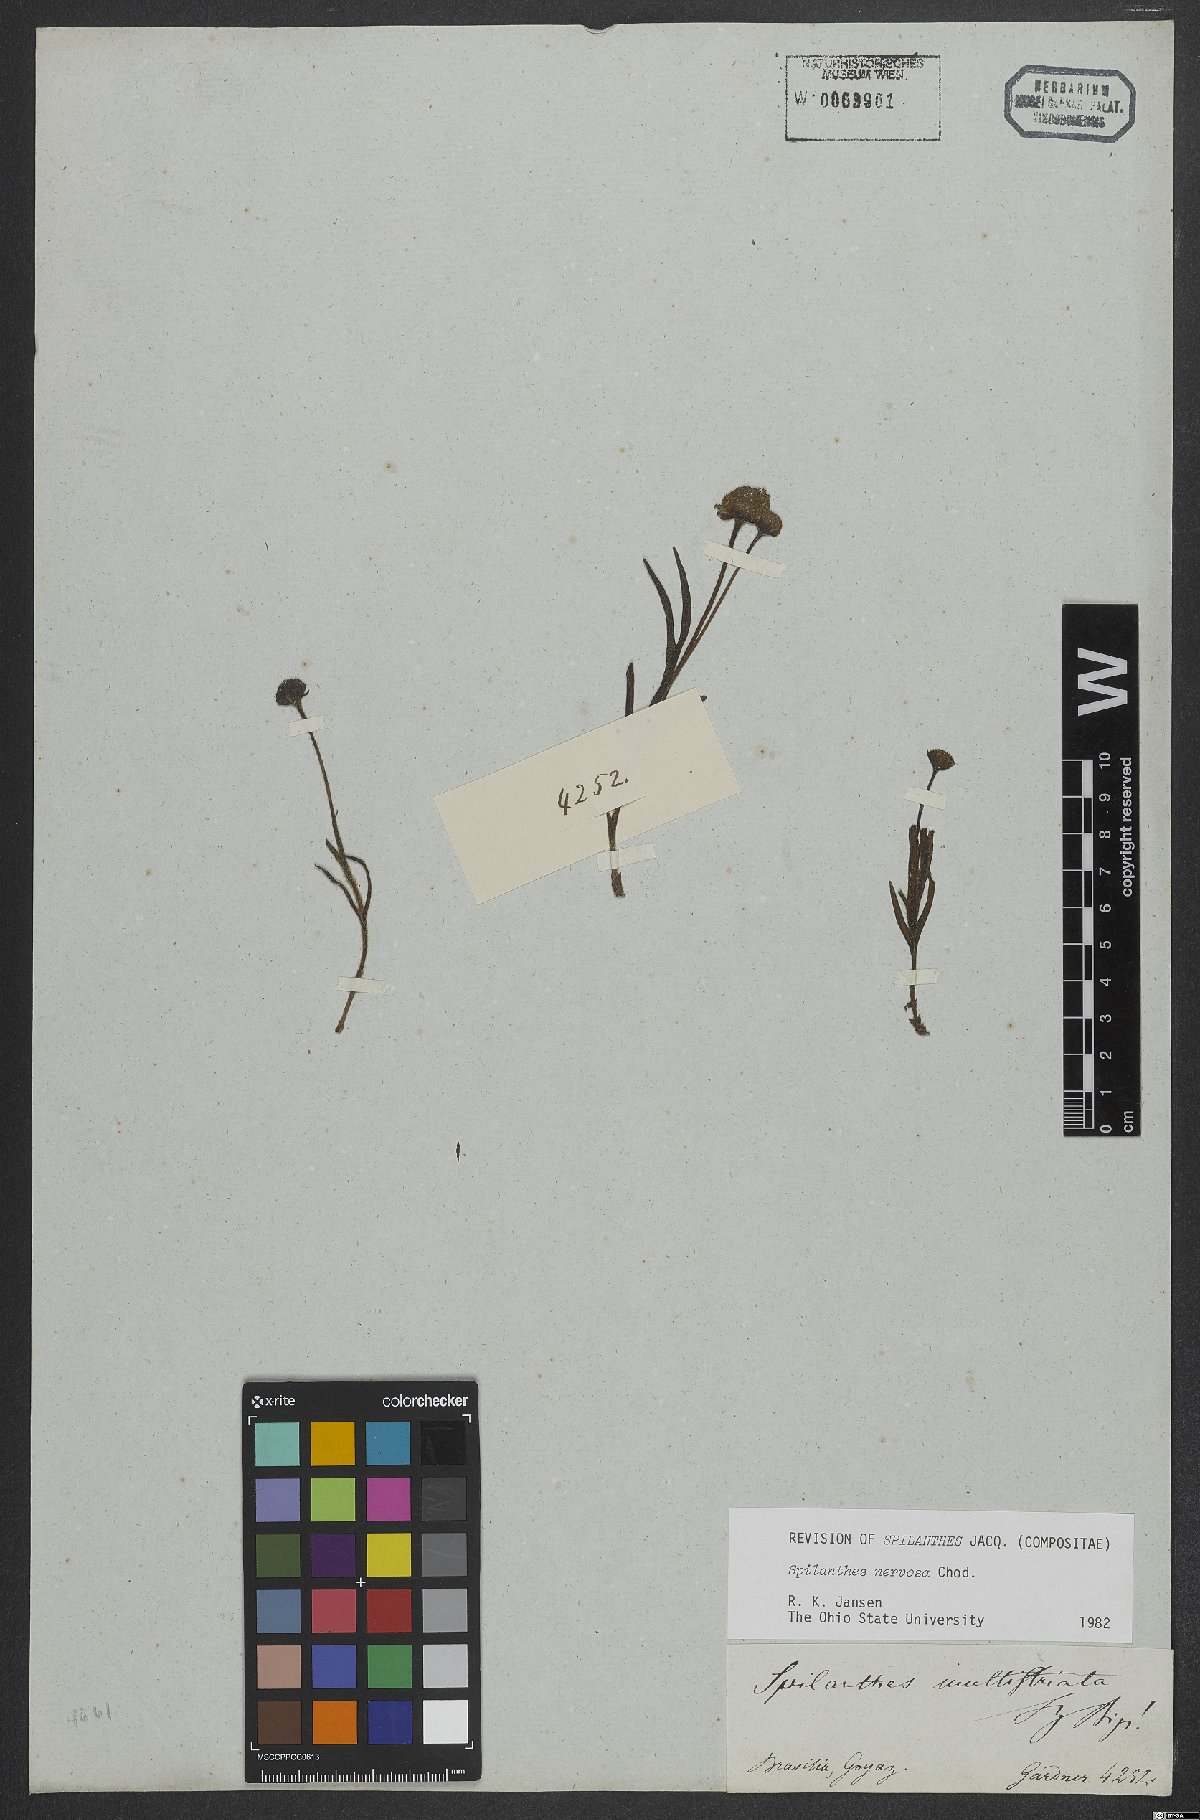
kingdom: Plantae
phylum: Tracheophyta
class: Magnoliopsida
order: Asterales
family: Asteraceae
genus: Spilanthes
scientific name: Spilanthes nervosa
